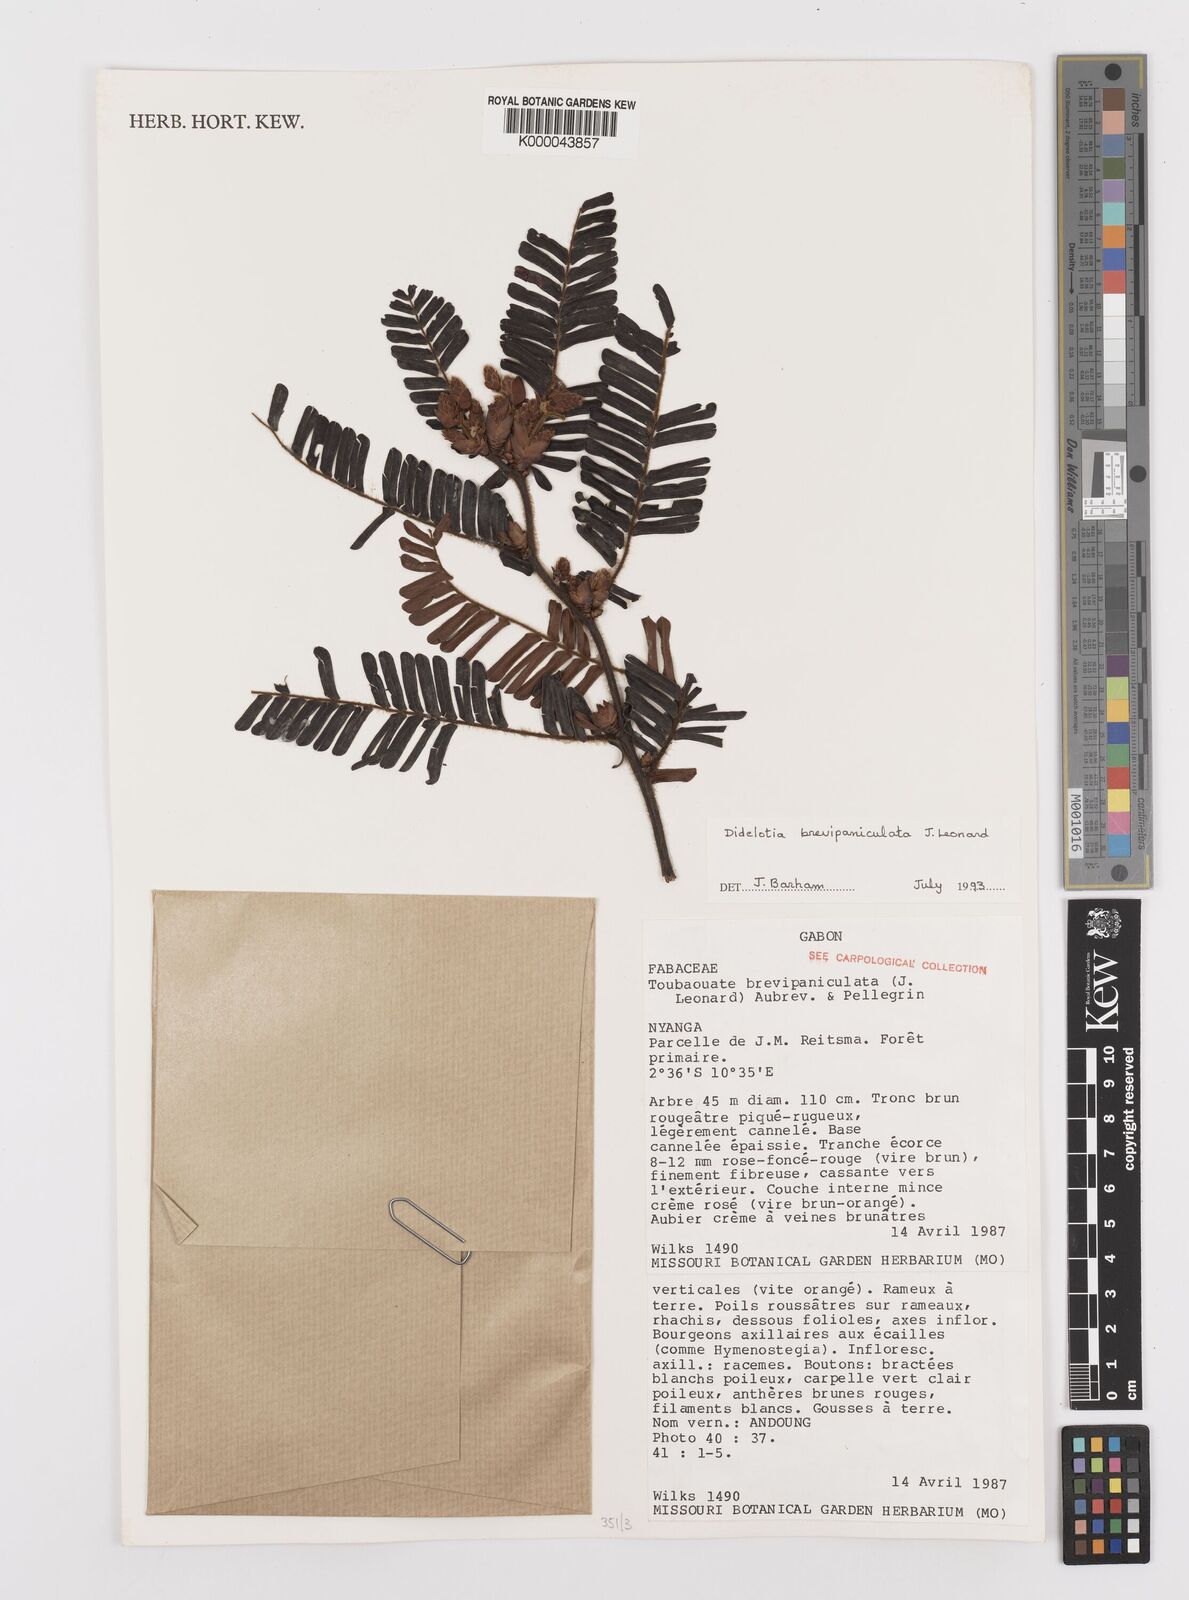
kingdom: Plantae
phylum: Tracheophyta
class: Magnoliopsida
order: Fabales
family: Fabaceae
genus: Didelotia
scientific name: Didelotia
